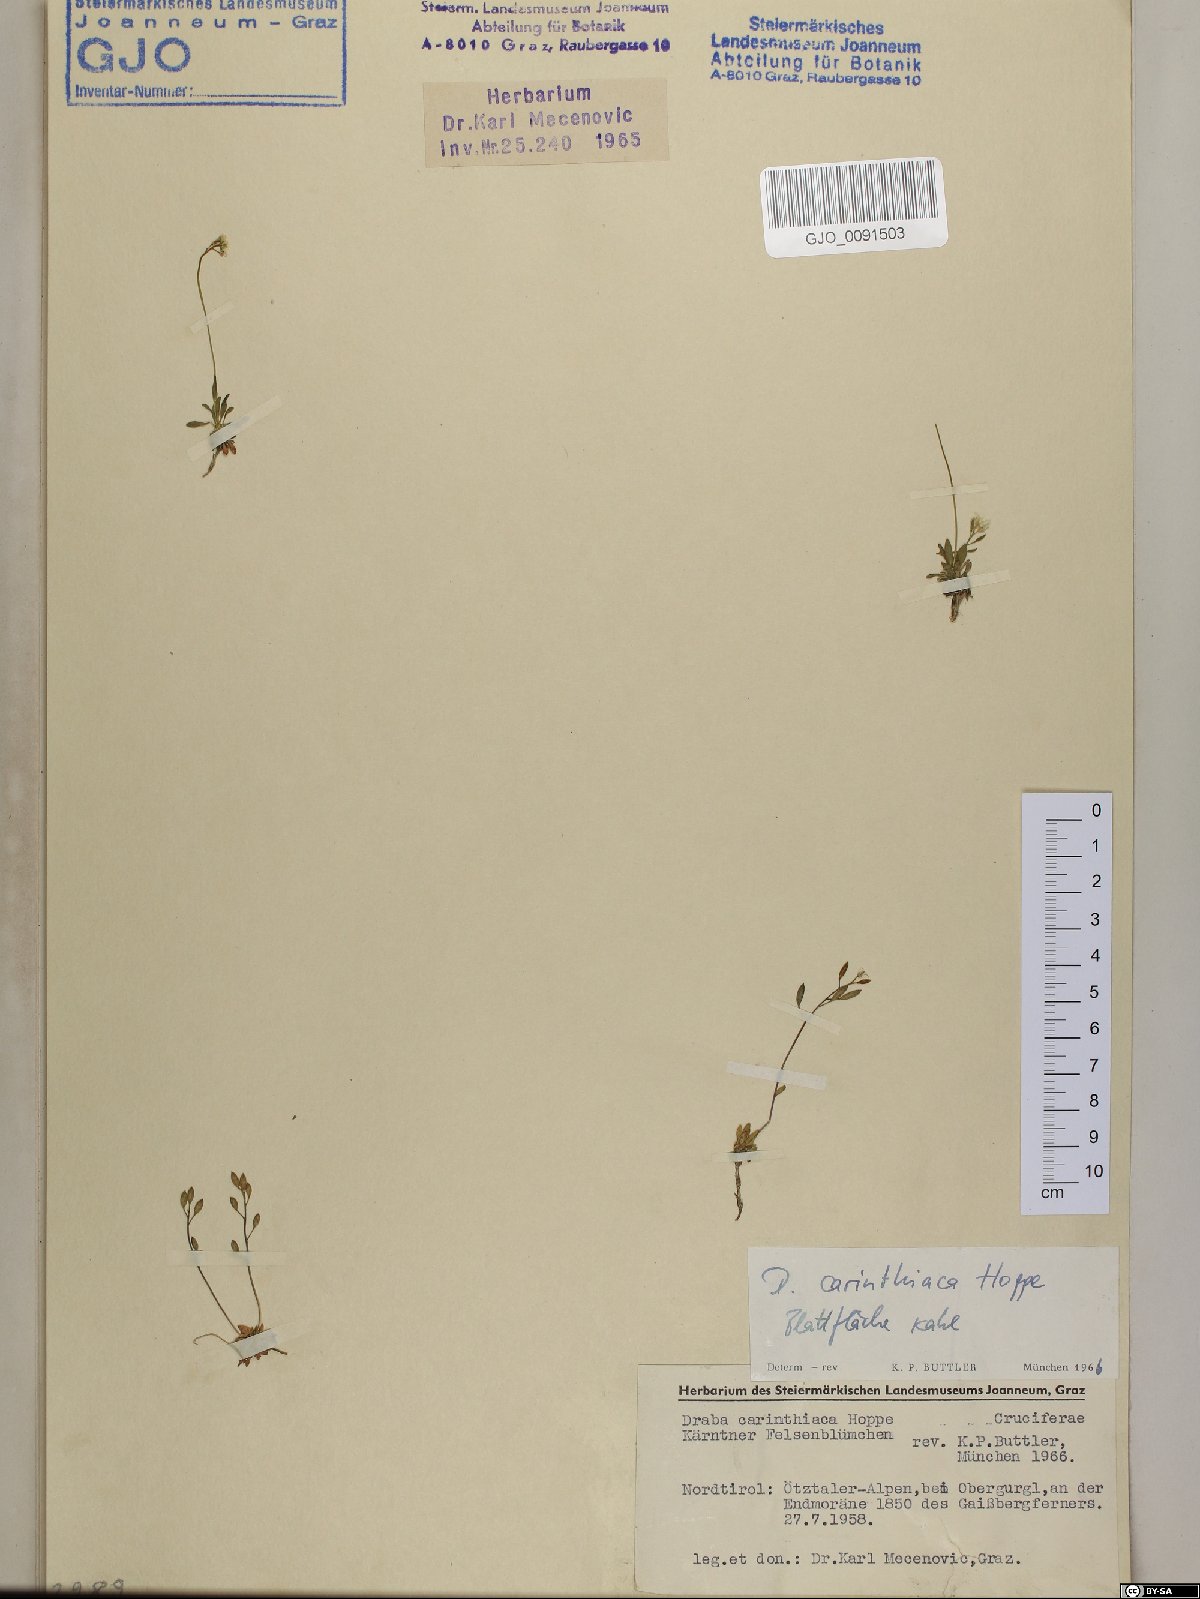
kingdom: Plantae
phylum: Tracheophyta
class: Magnoliopsida
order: Brassicales
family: Brassicaceae
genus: Draba
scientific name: Draba siliquosa
